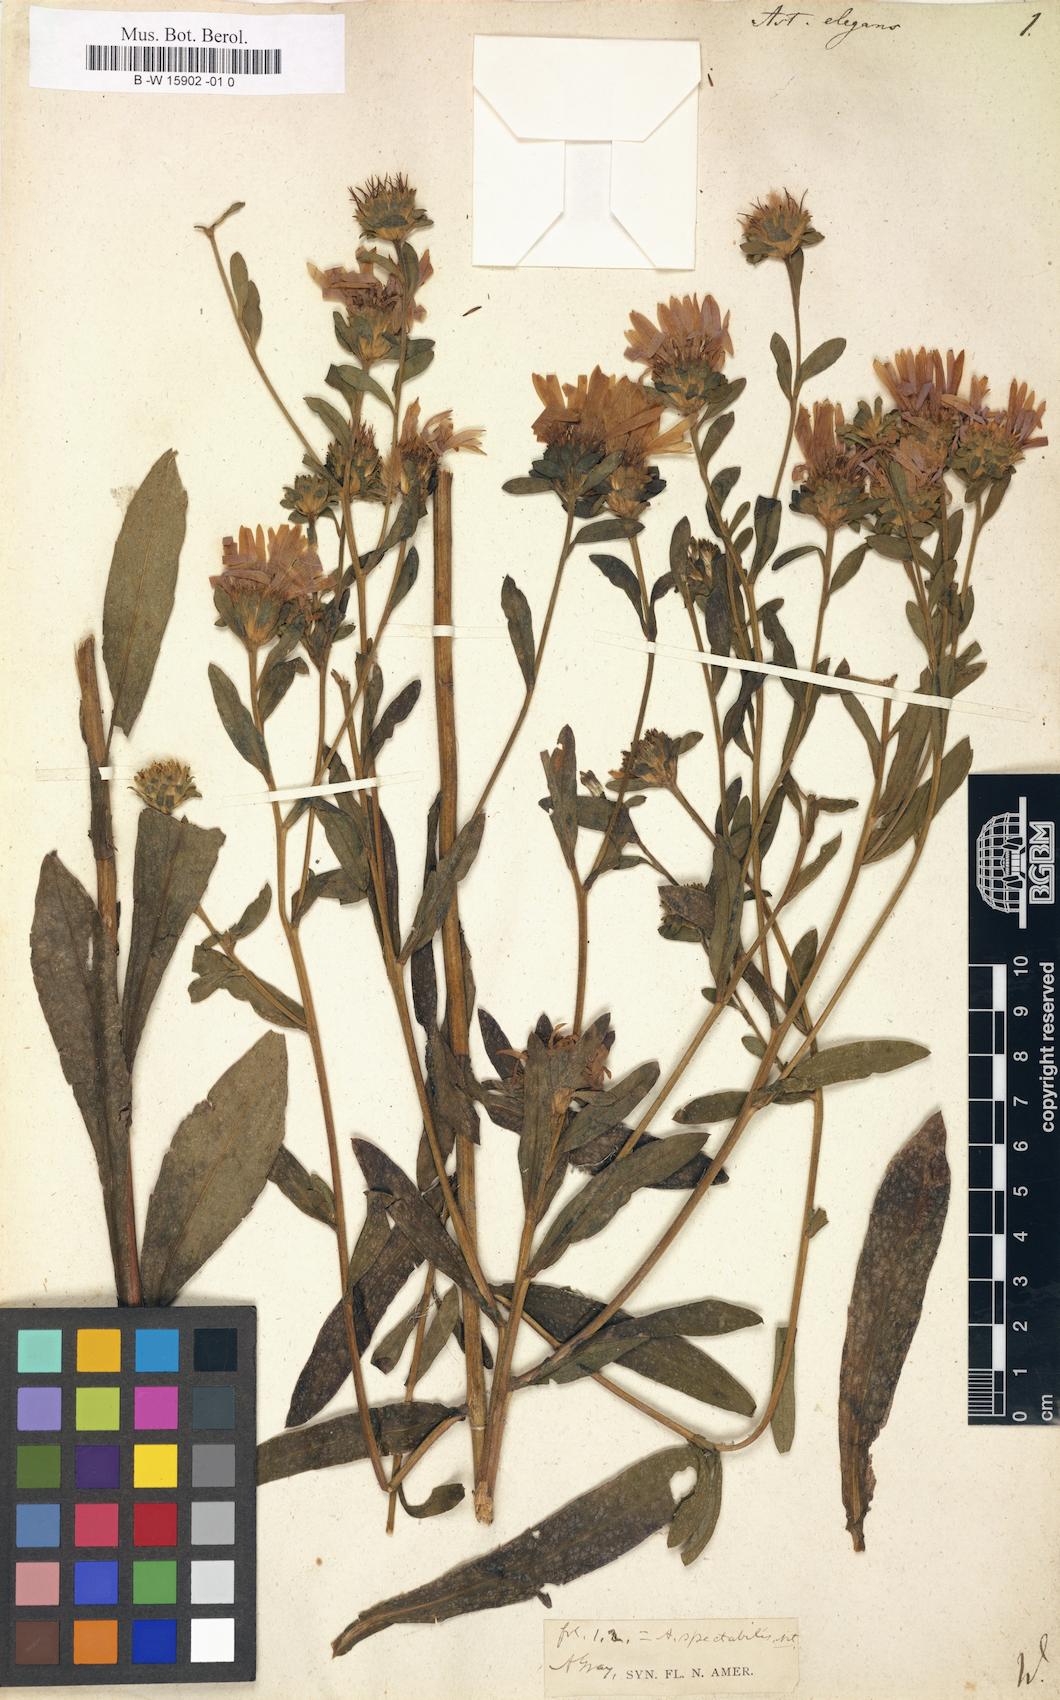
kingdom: Plantae
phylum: Tracheophyta
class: Magnoliopsida
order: Asterales
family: Asteraceae
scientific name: Asteraceae
